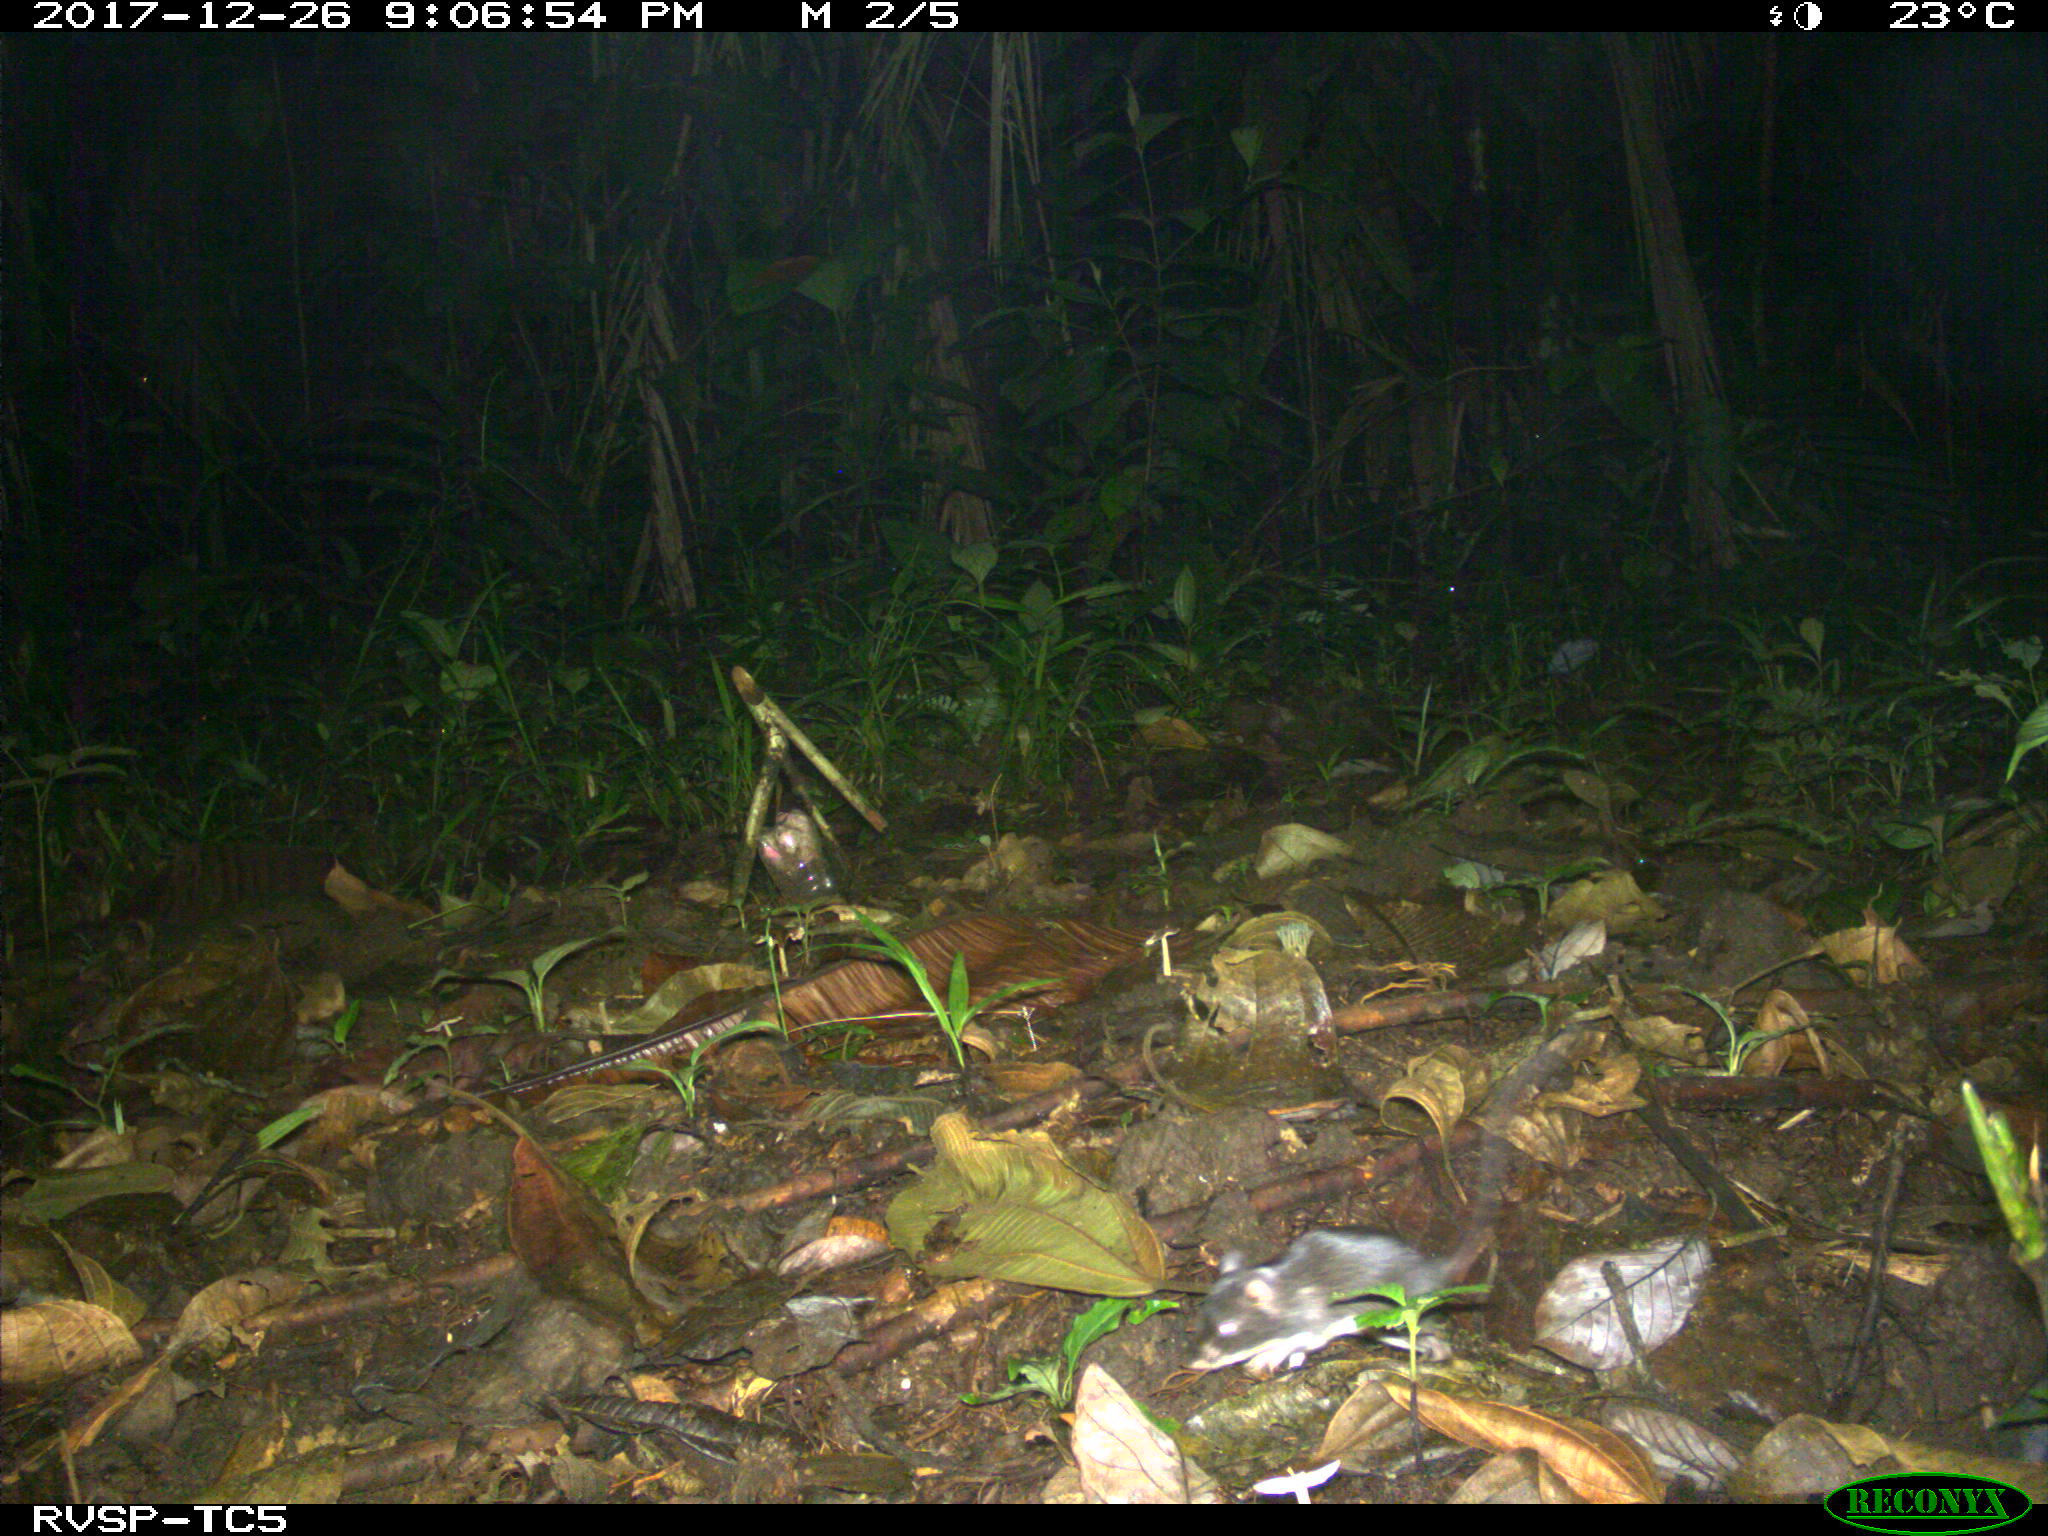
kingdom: Animalia
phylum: Chordata
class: Mammalia
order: Rodentia
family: Echimyidae
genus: Proechimys
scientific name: Proechimys
